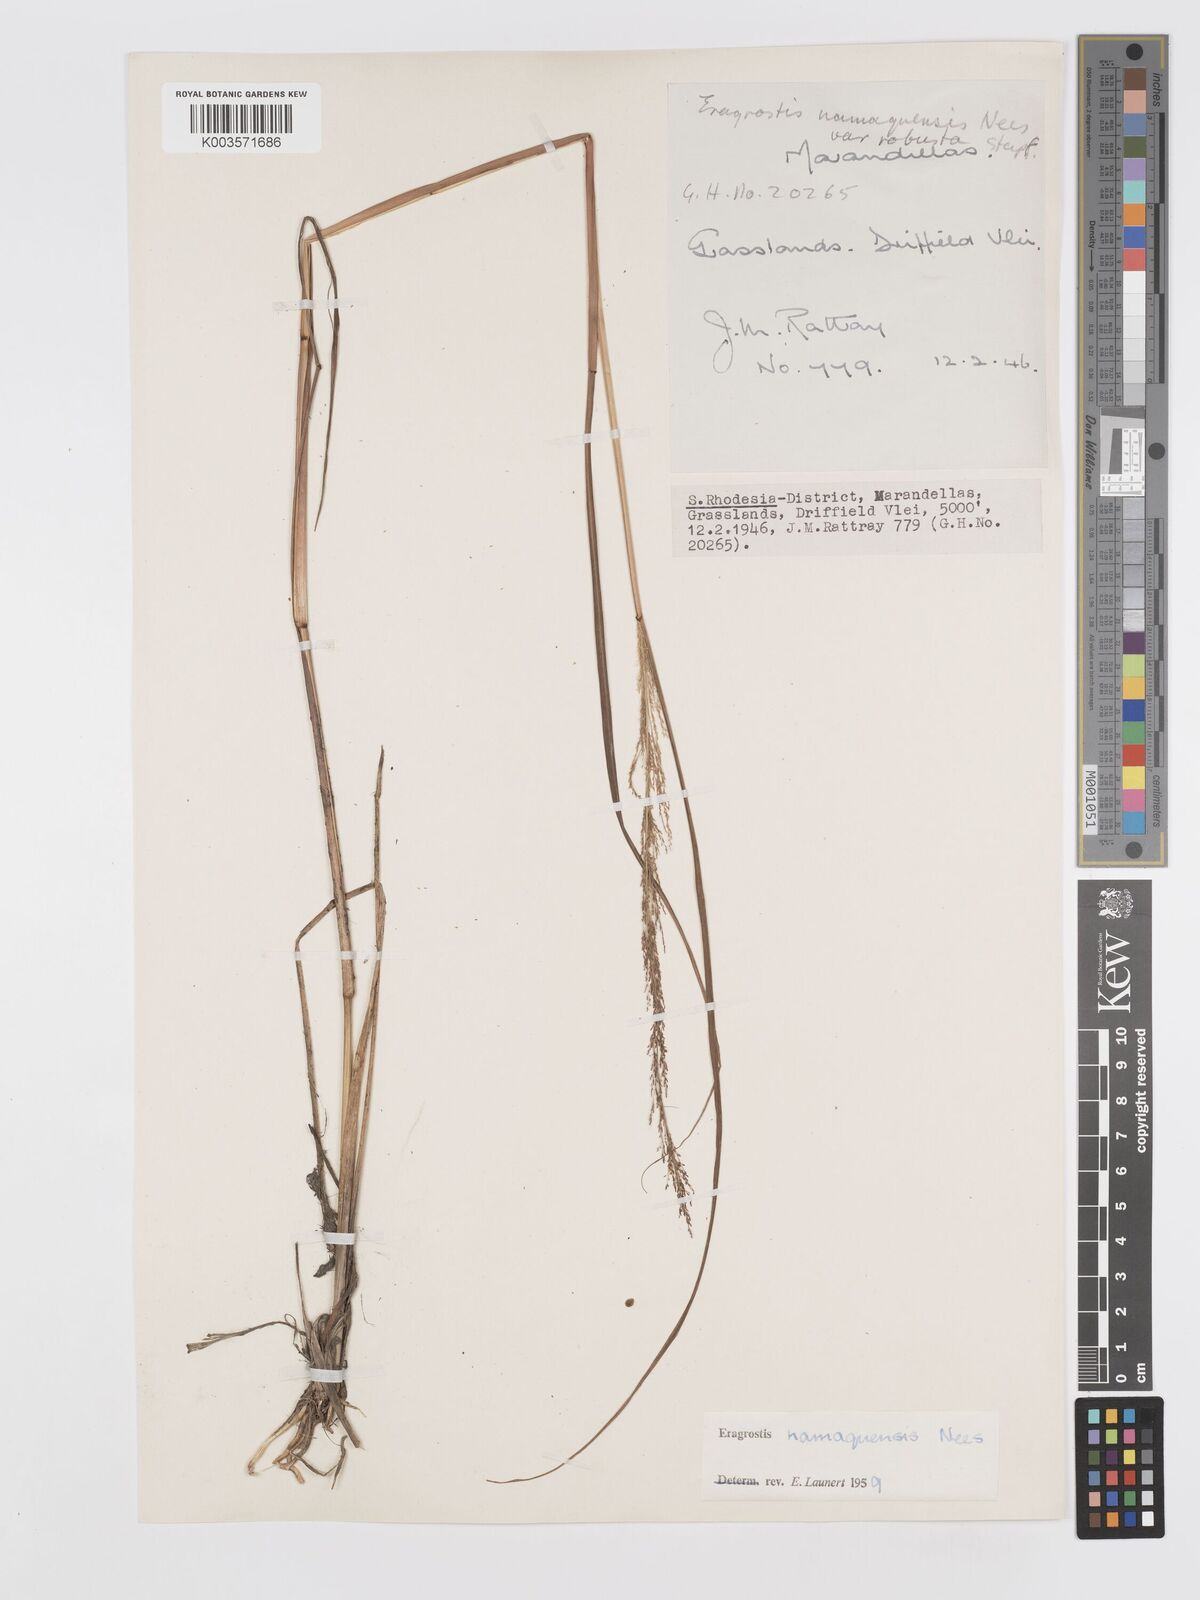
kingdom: Plantae
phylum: Tracheophyta
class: Liliopsida
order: Poales
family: Poaceae
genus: Eragrostis
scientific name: Eragrostis japonica
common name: Pond lovegrass
